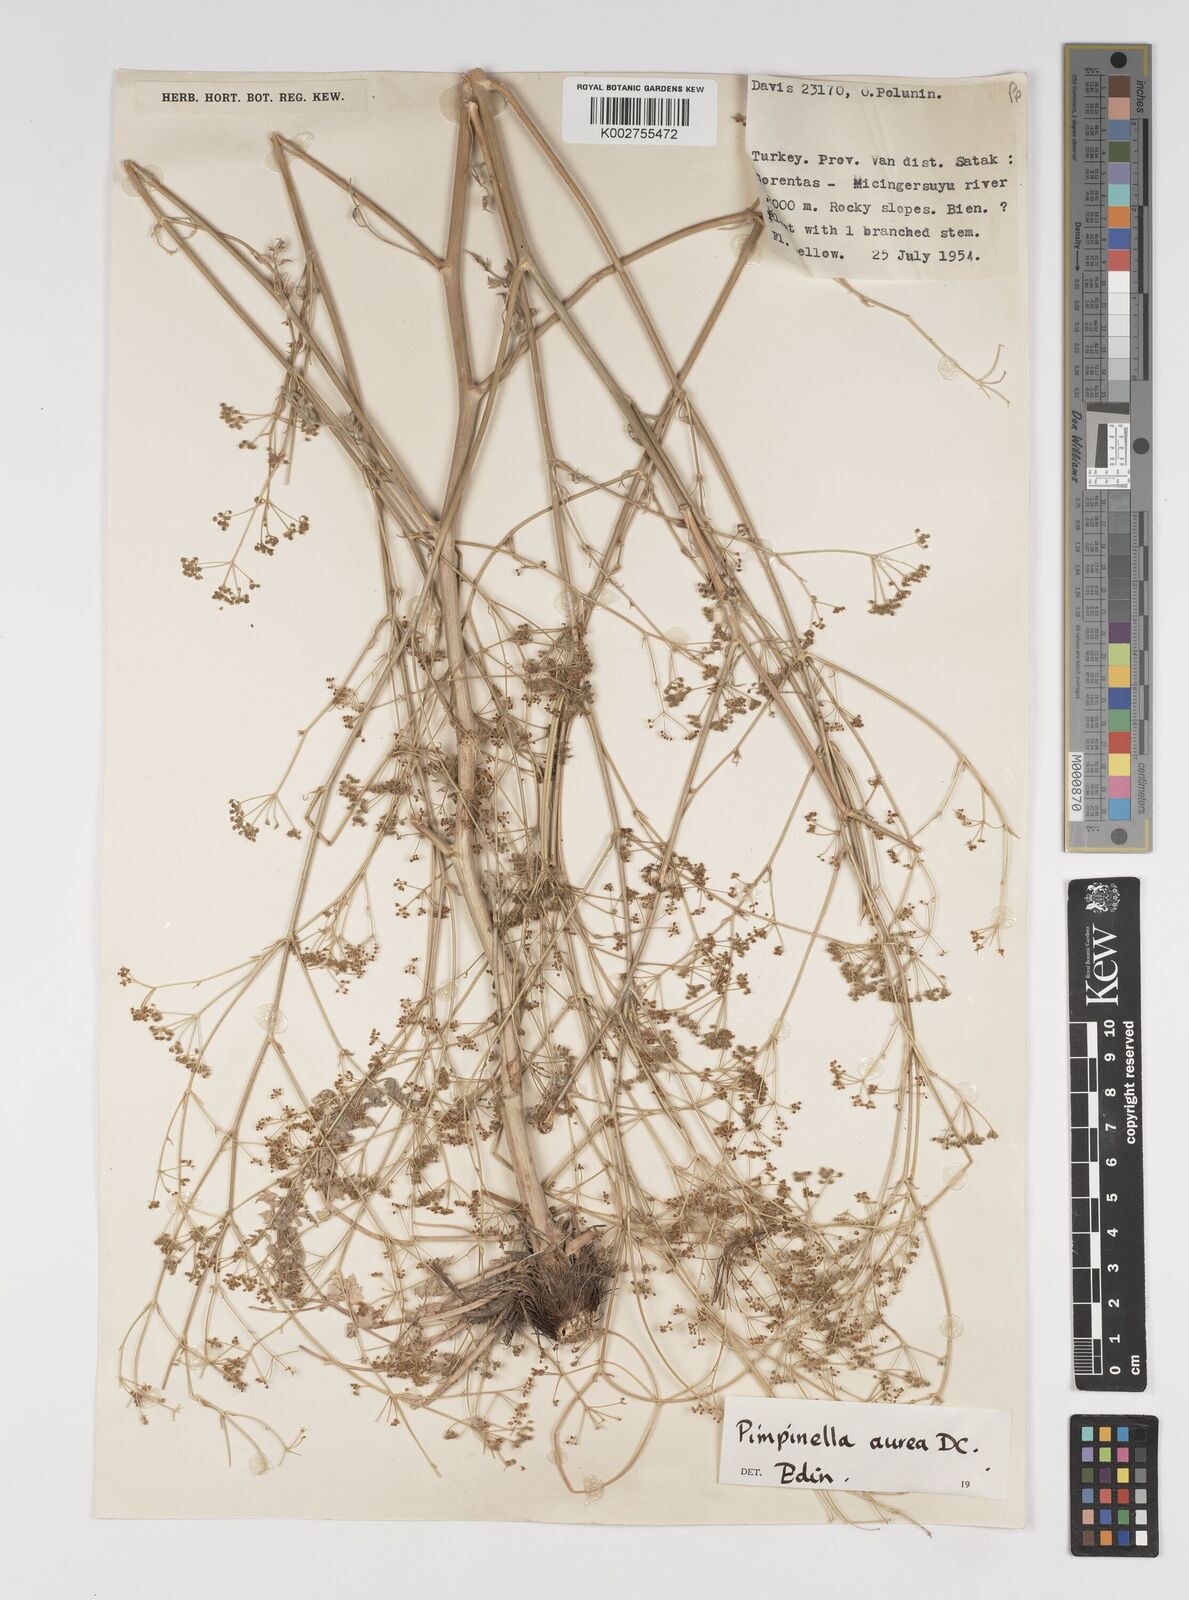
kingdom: Plantae
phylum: Tracheophyta
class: Magnoliopsida
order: Apiales
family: Apiaceae
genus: Pimpinella
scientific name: Pimpinella aurea
